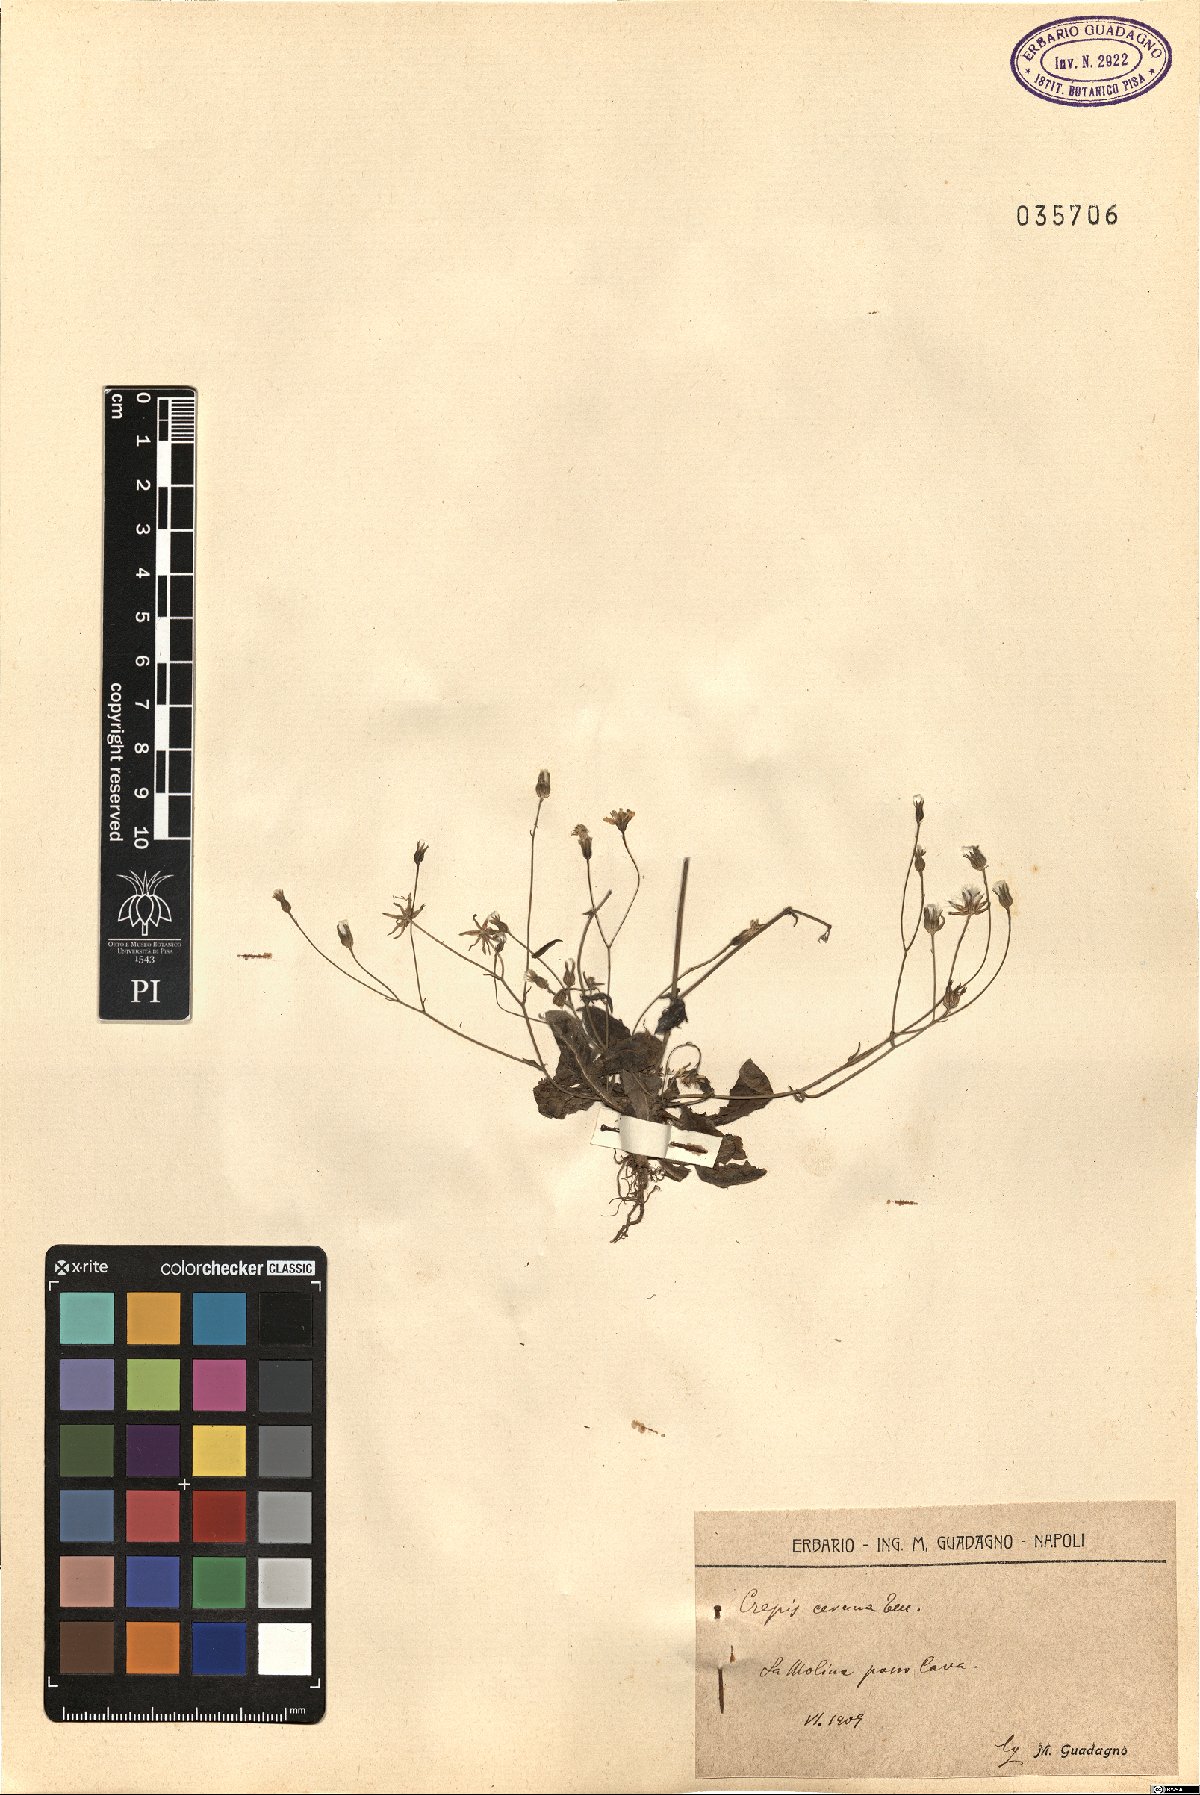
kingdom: Plantae
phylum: Tracheophyta
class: Magnoliopsida
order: Asterales
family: Asteraceae
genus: Crepis
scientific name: Crepis neglecta
